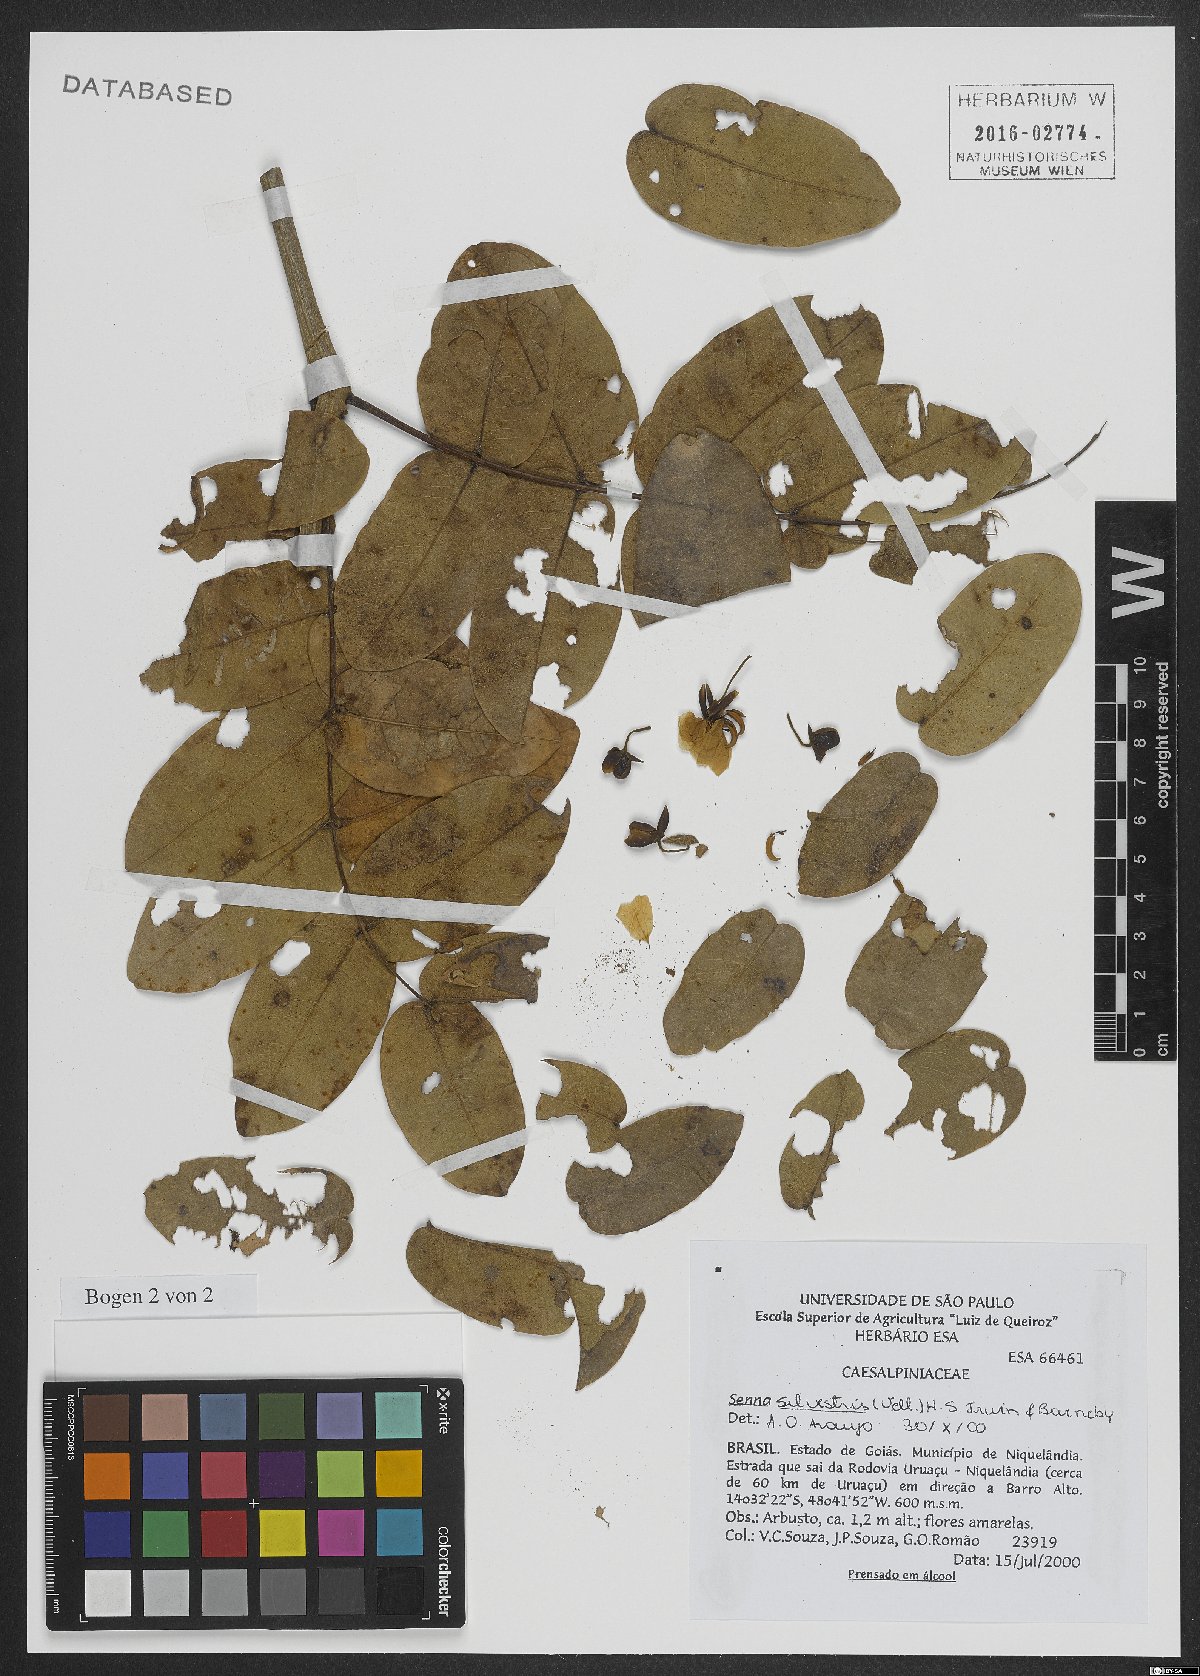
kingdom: Plantae
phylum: Tracheophyta
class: Magnoliopsida
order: Fabales
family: Fabaceae
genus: Senna
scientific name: Senna silvestris
